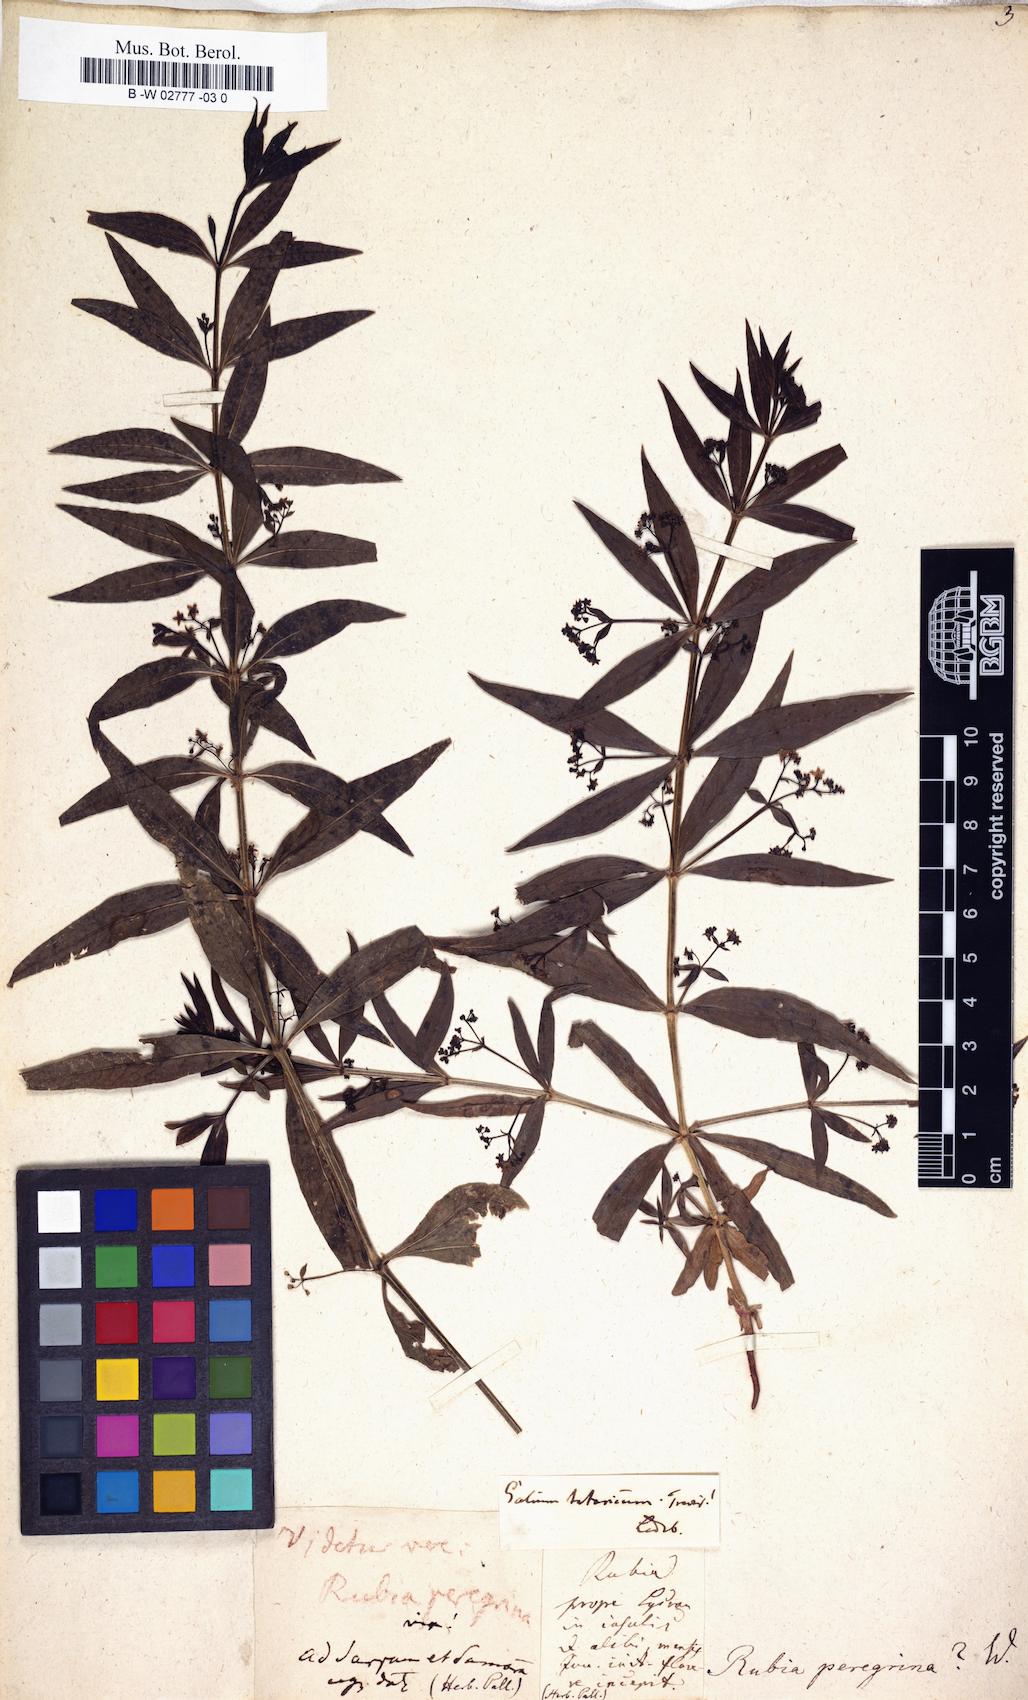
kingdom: Plantae
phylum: Tracheophyta
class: Magnoliopsida
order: Gentianales
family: Rubiaceae
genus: Rubia
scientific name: Rubia peregrina
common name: Wild madder
